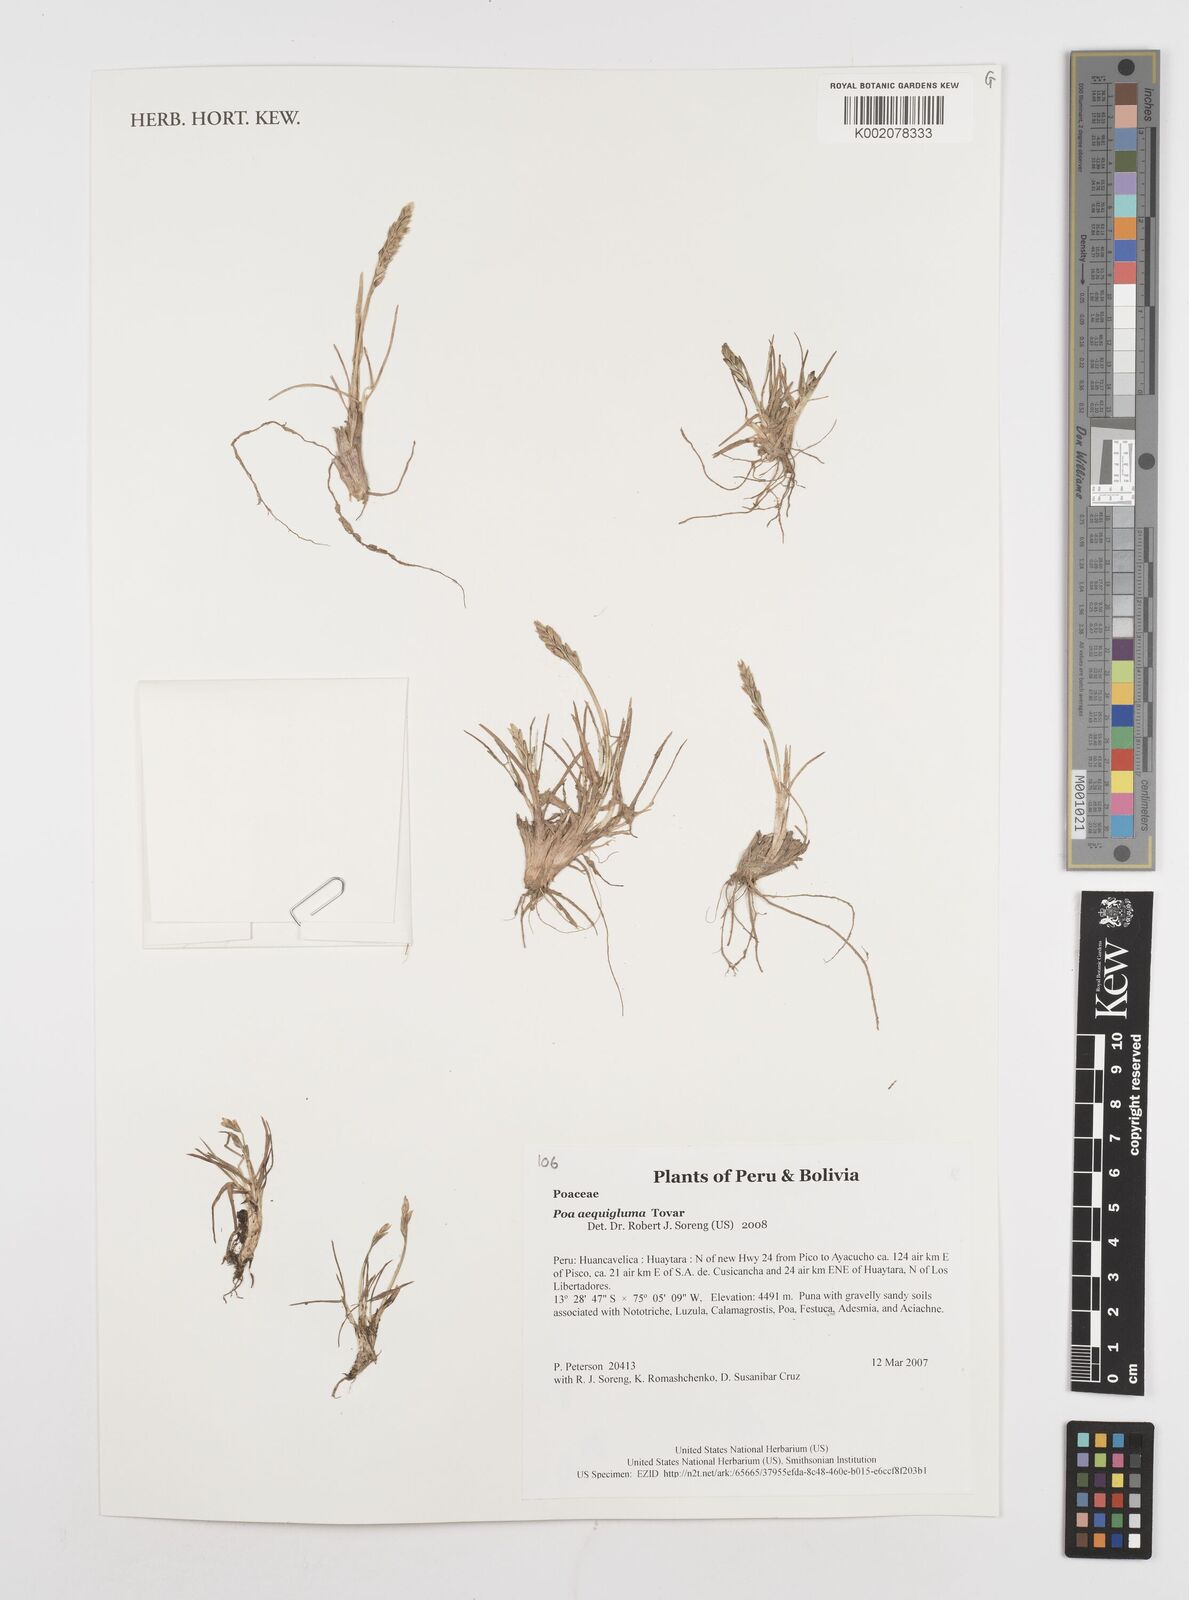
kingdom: Plantae
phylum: Tracheophyta
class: Liliopsida
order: Poales
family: Poaceae
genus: Poa
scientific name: Poa gymnantha
